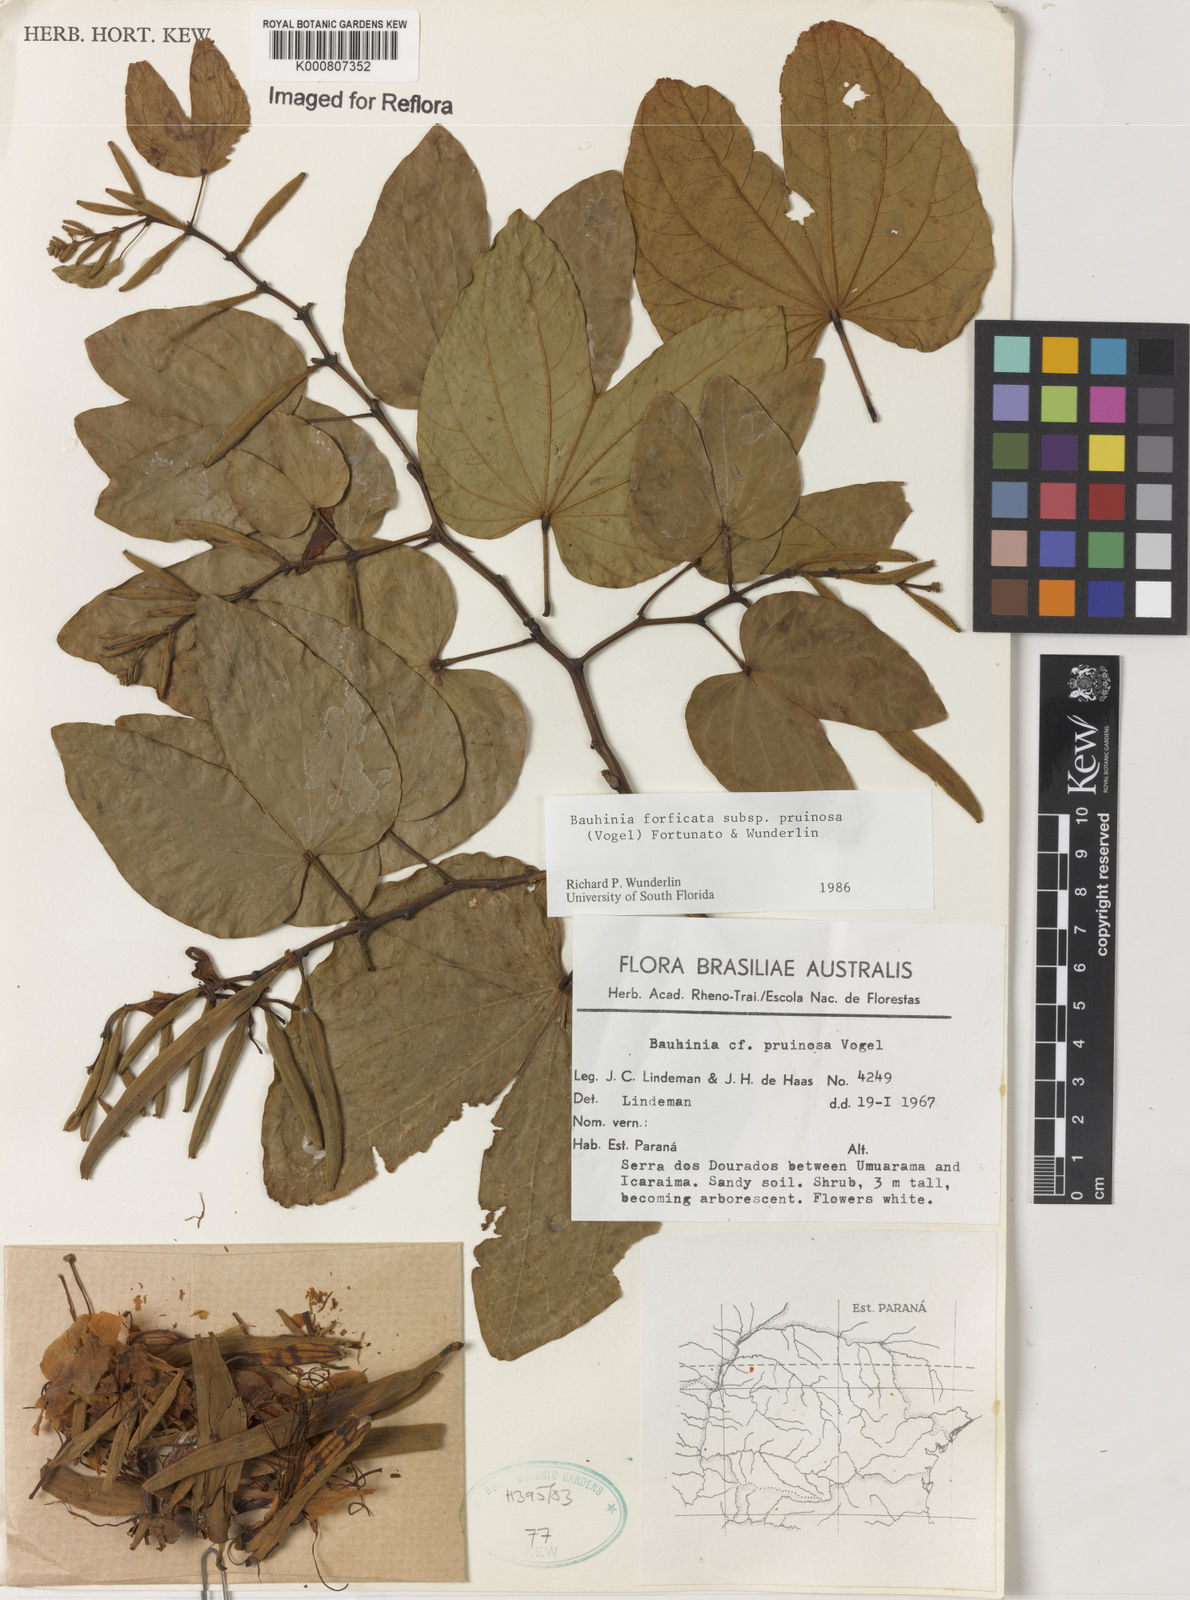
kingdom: Plantae
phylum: Tracheophyta
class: Magnoliopsida
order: Fabales
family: Fabaceae
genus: Bauhinia
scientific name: Bauhinia forficata
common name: Orchid tree
